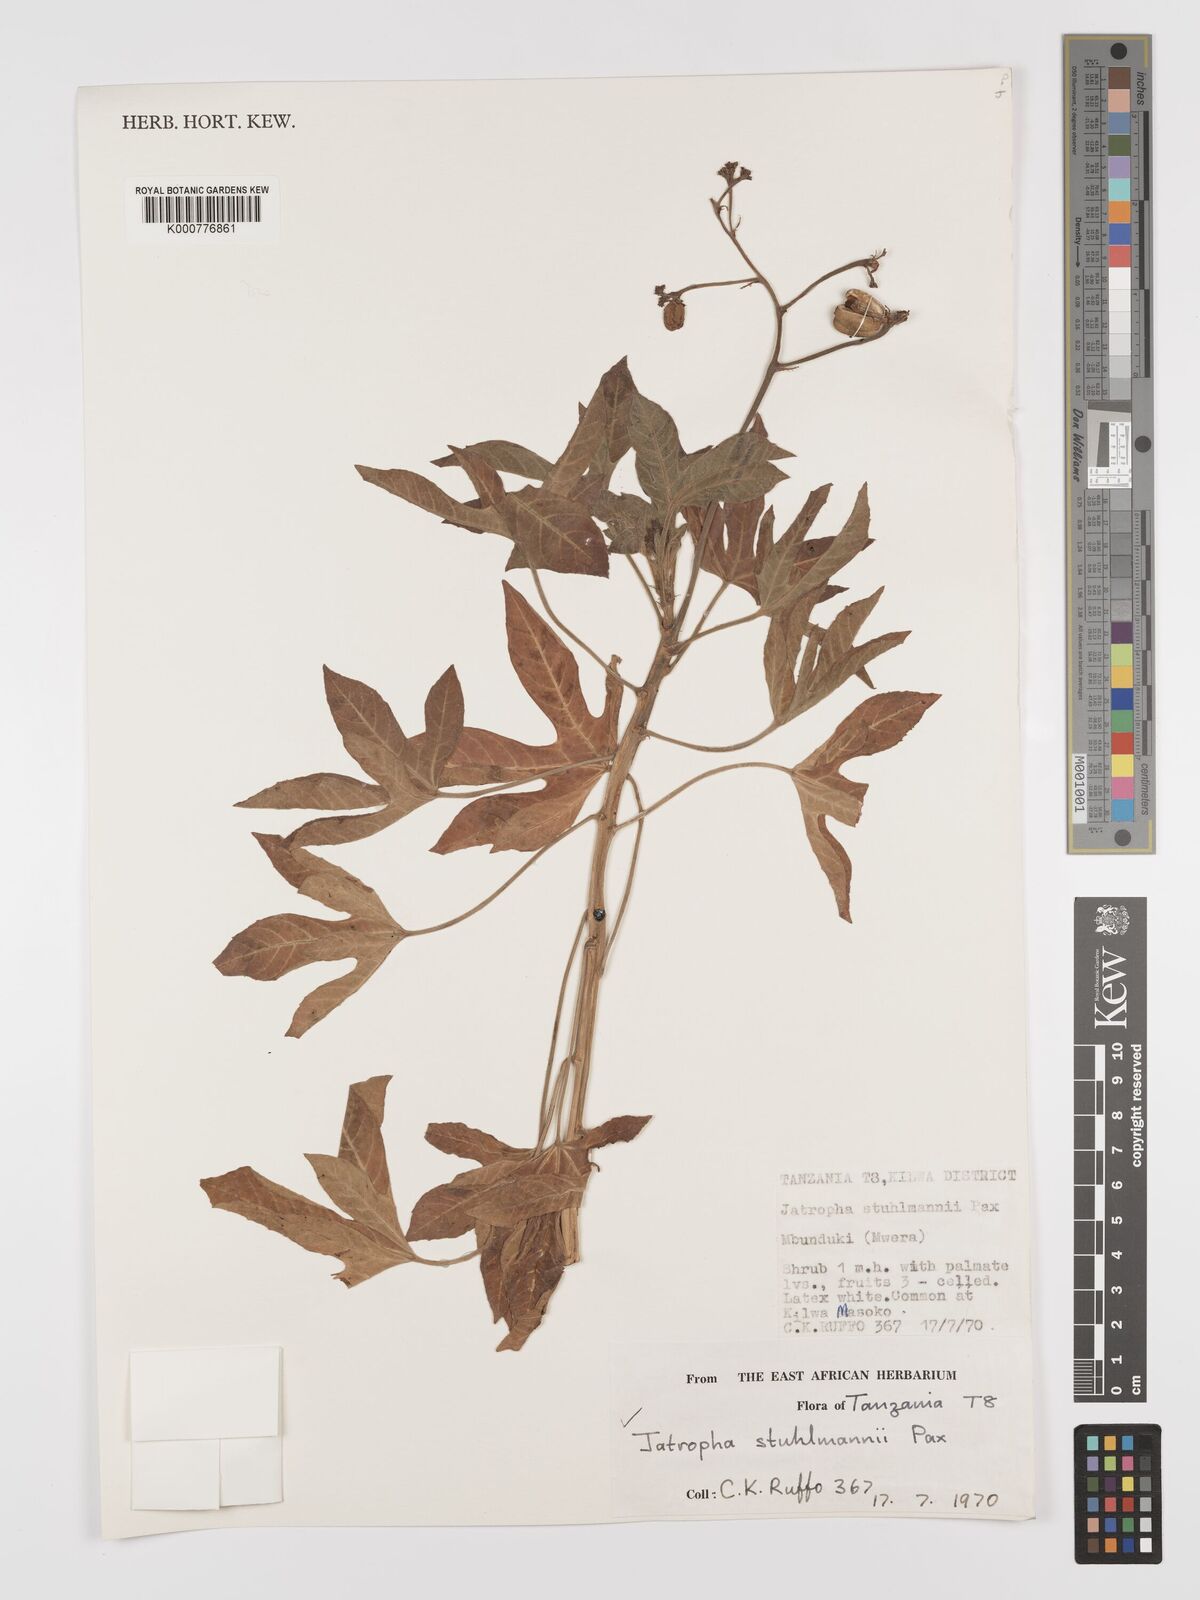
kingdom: Plantae
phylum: Tracheophyta
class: Magnoliopsida
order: Malpighiales
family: Euphorbiaceae
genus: Jatropha
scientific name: Jatropha stuhlmannii
